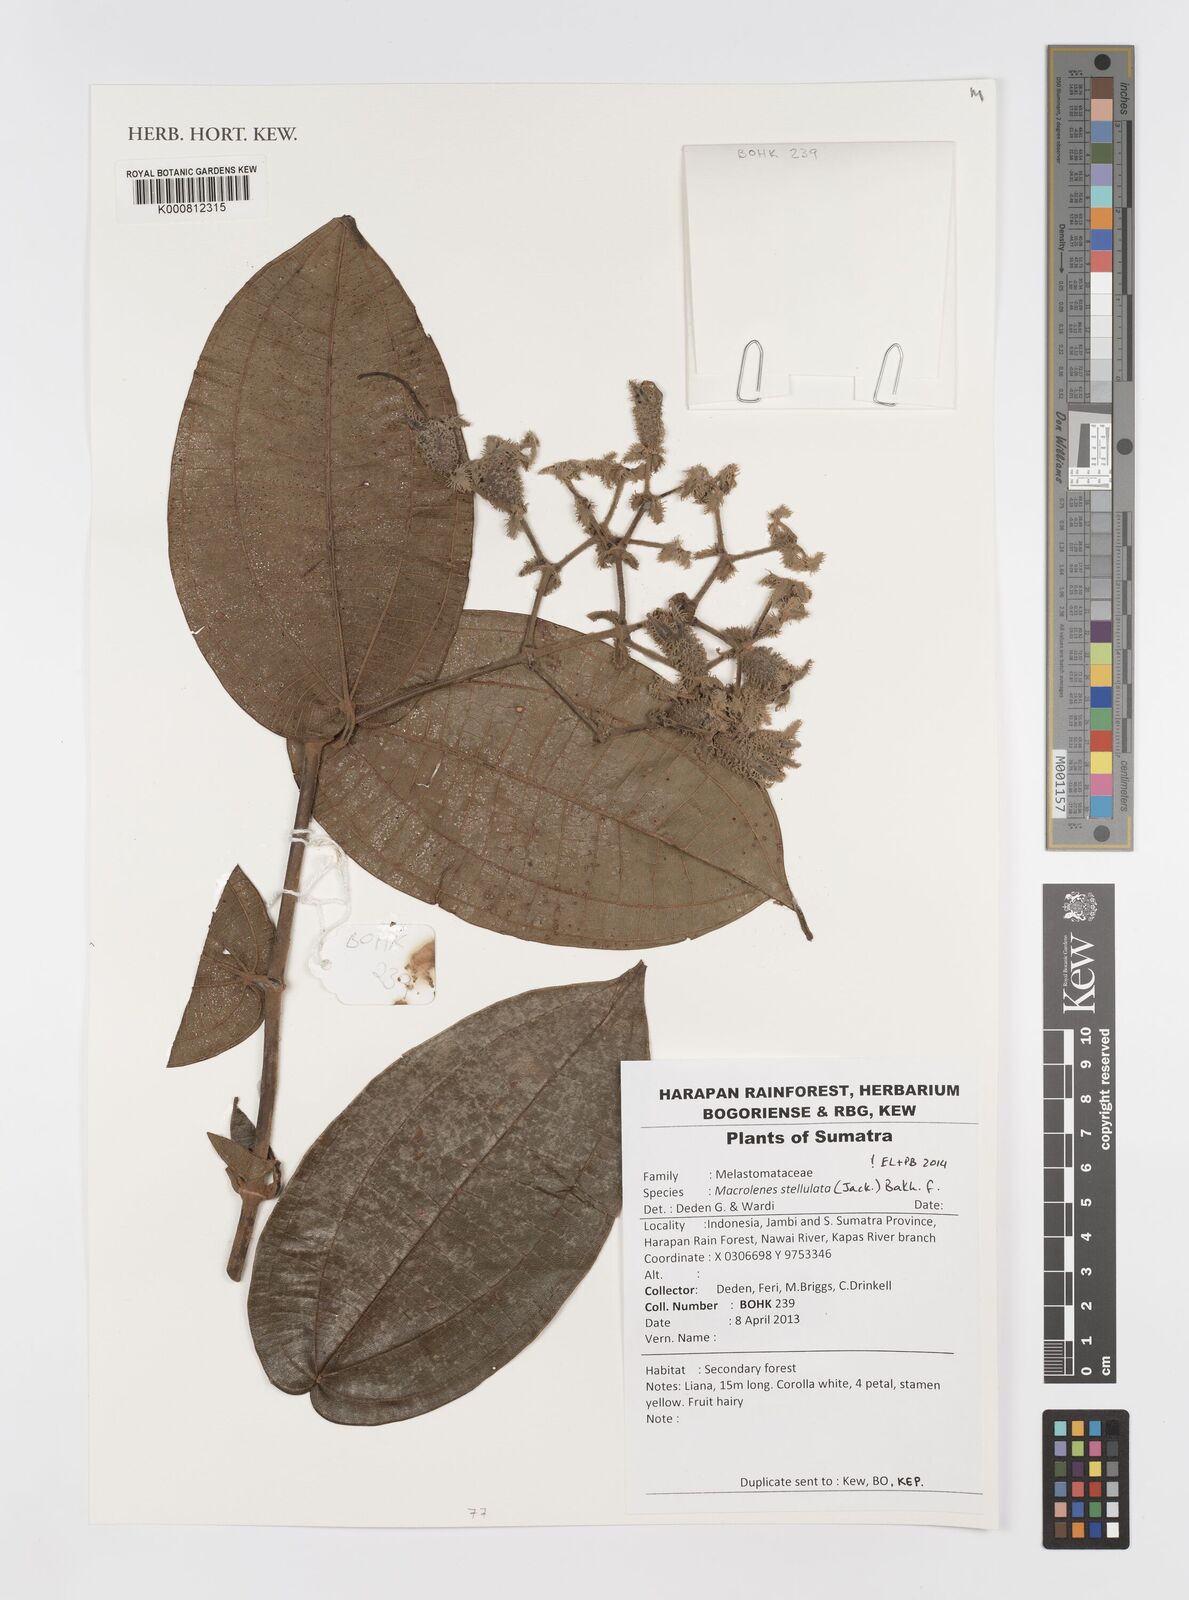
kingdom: Plantae
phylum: Tracheophyta
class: Magnoliopsida
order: Myrtales
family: Melastomataceae
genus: Macrolenes
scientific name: Macrolenes stellulata
